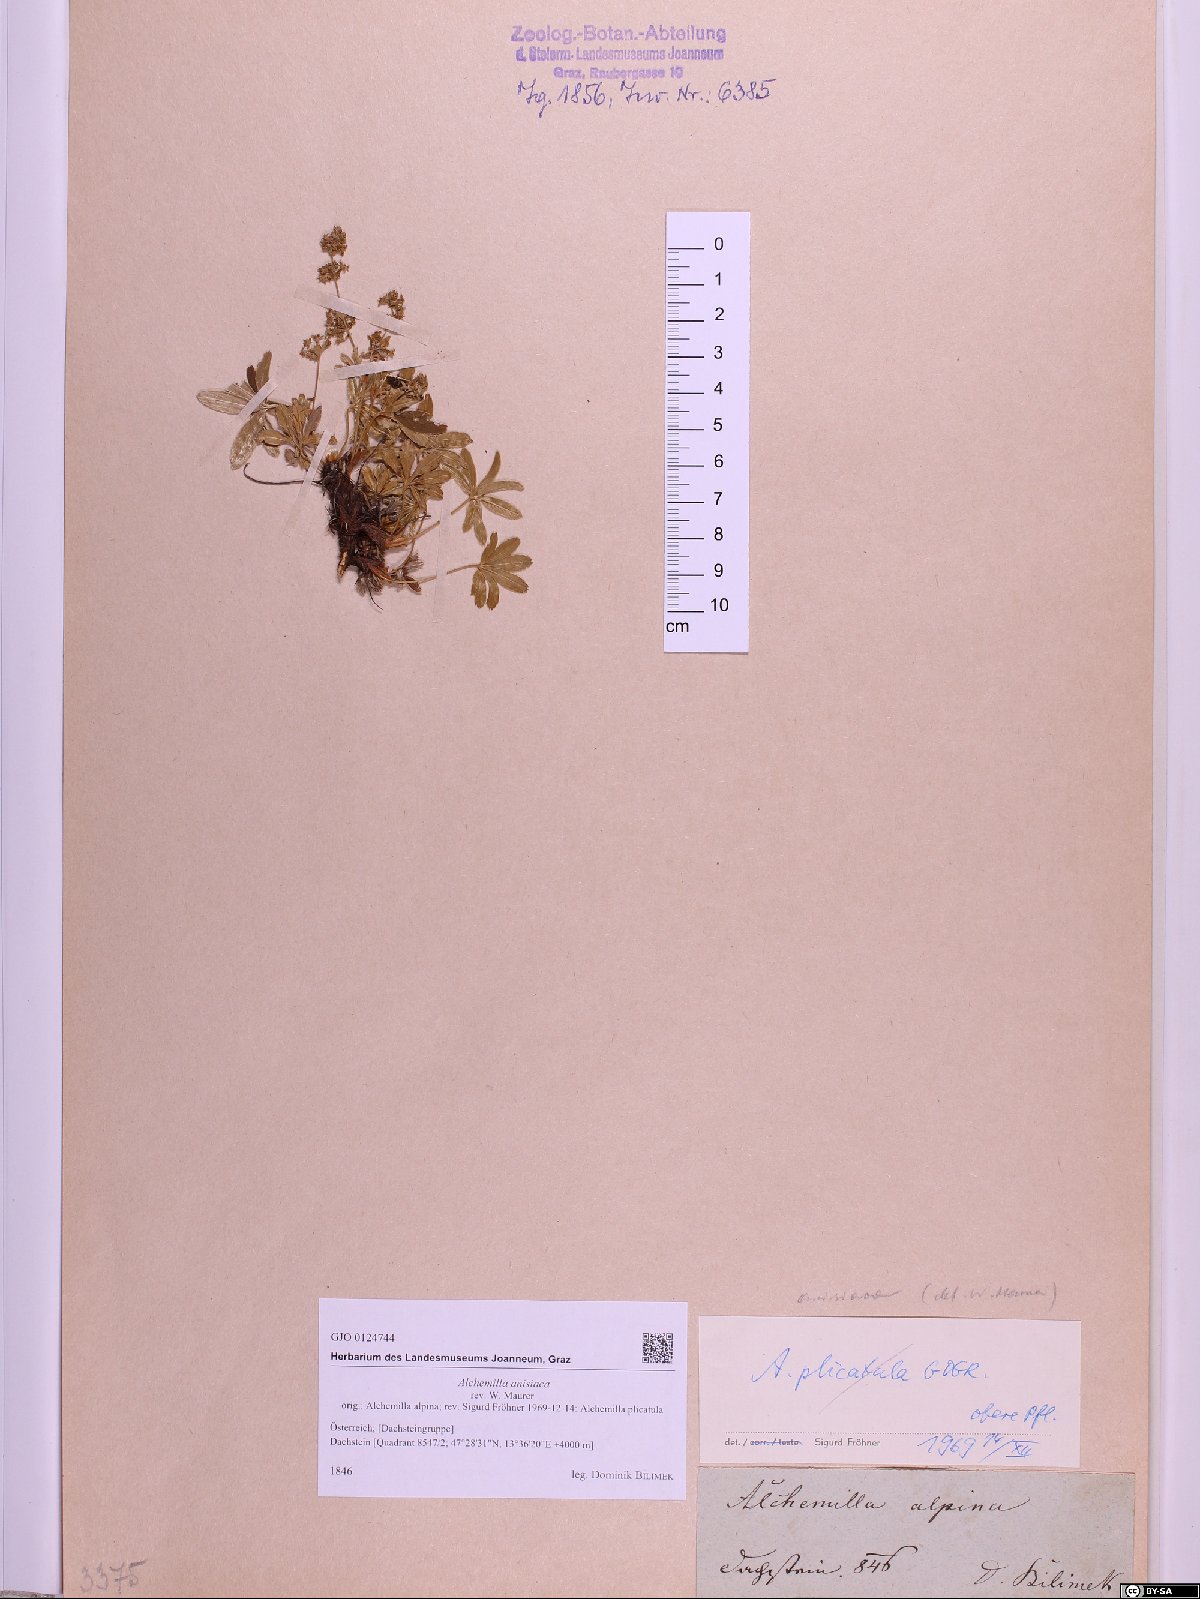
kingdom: Plantae
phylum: Tracheophyta
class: Magnoliopsida
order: Rosales
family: Rosaceae
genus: Alchemilla
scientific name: Alchemilla anisiaca
